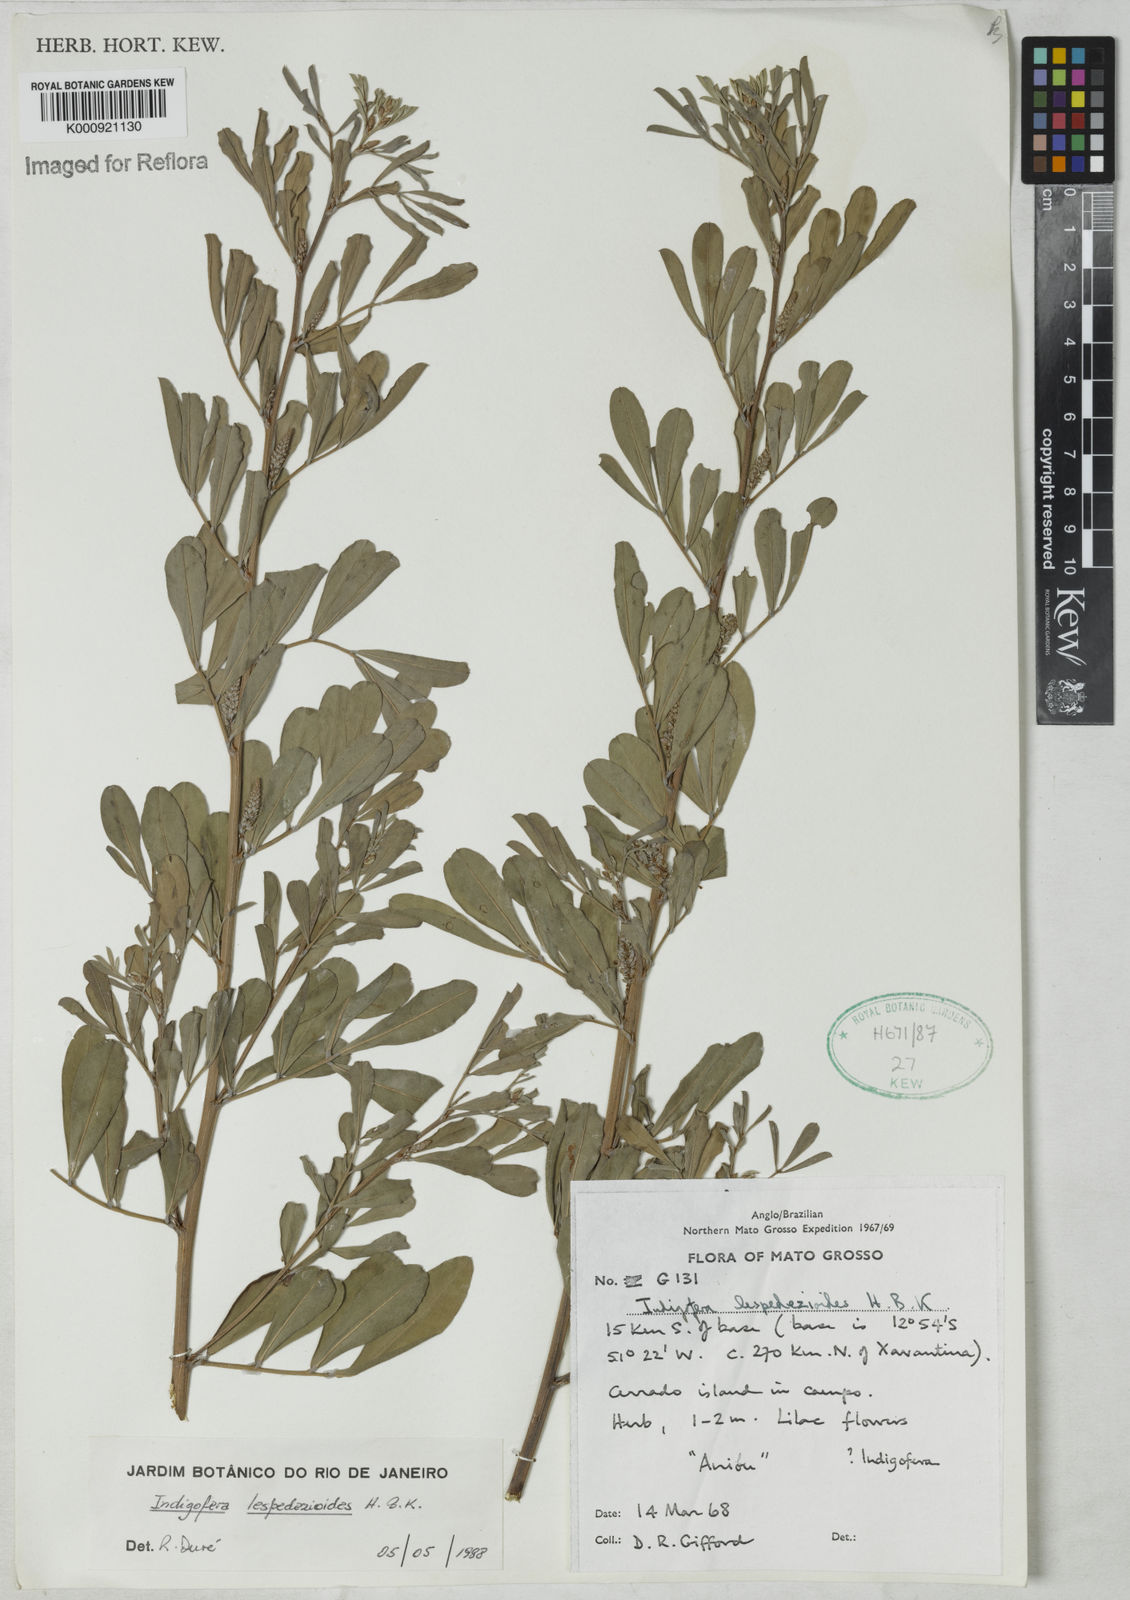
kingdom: Plantae
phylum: Tracheophyta
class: Magnoliopsida
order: Fabales
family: Fabaceae
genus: Indigofera
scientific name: Indigofera lespedezioides
